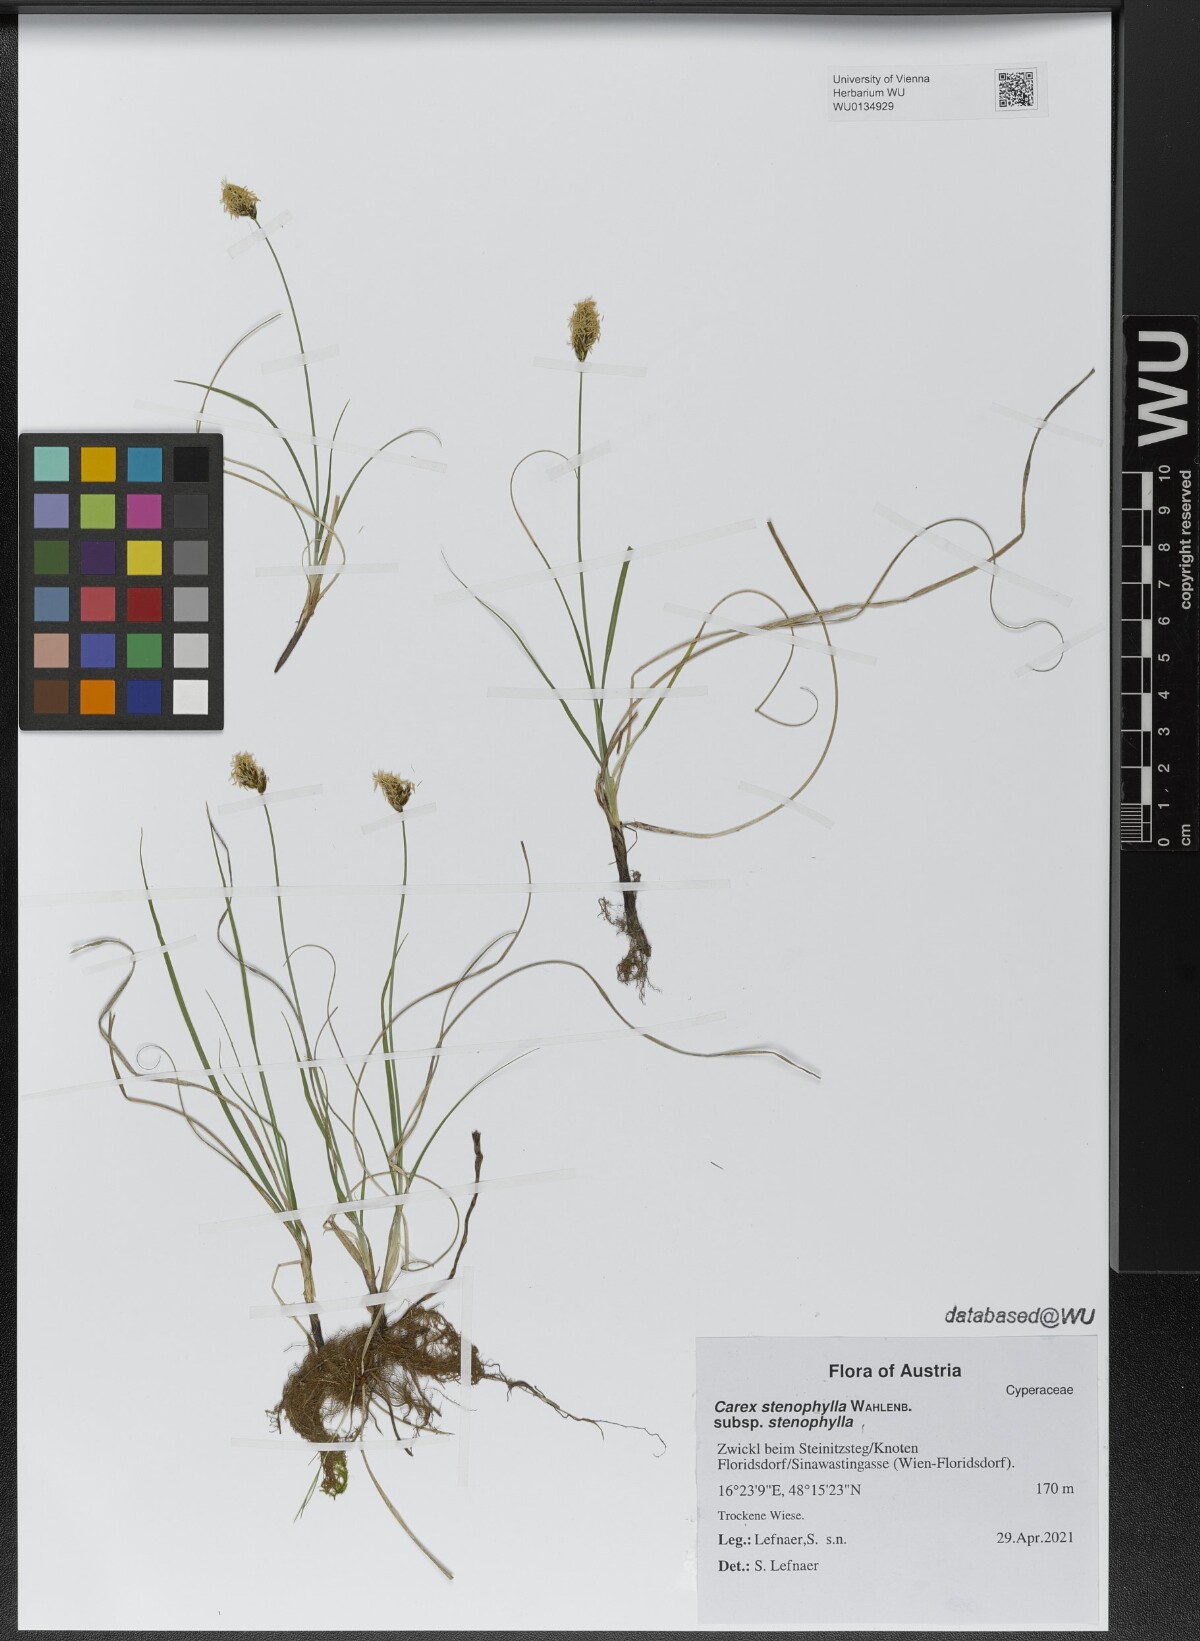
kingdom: Plantae
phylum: Tracheophyta
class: Liliopsida
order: Poales
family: Cyperaceae
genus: Carex
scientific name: Carex stenophylla
